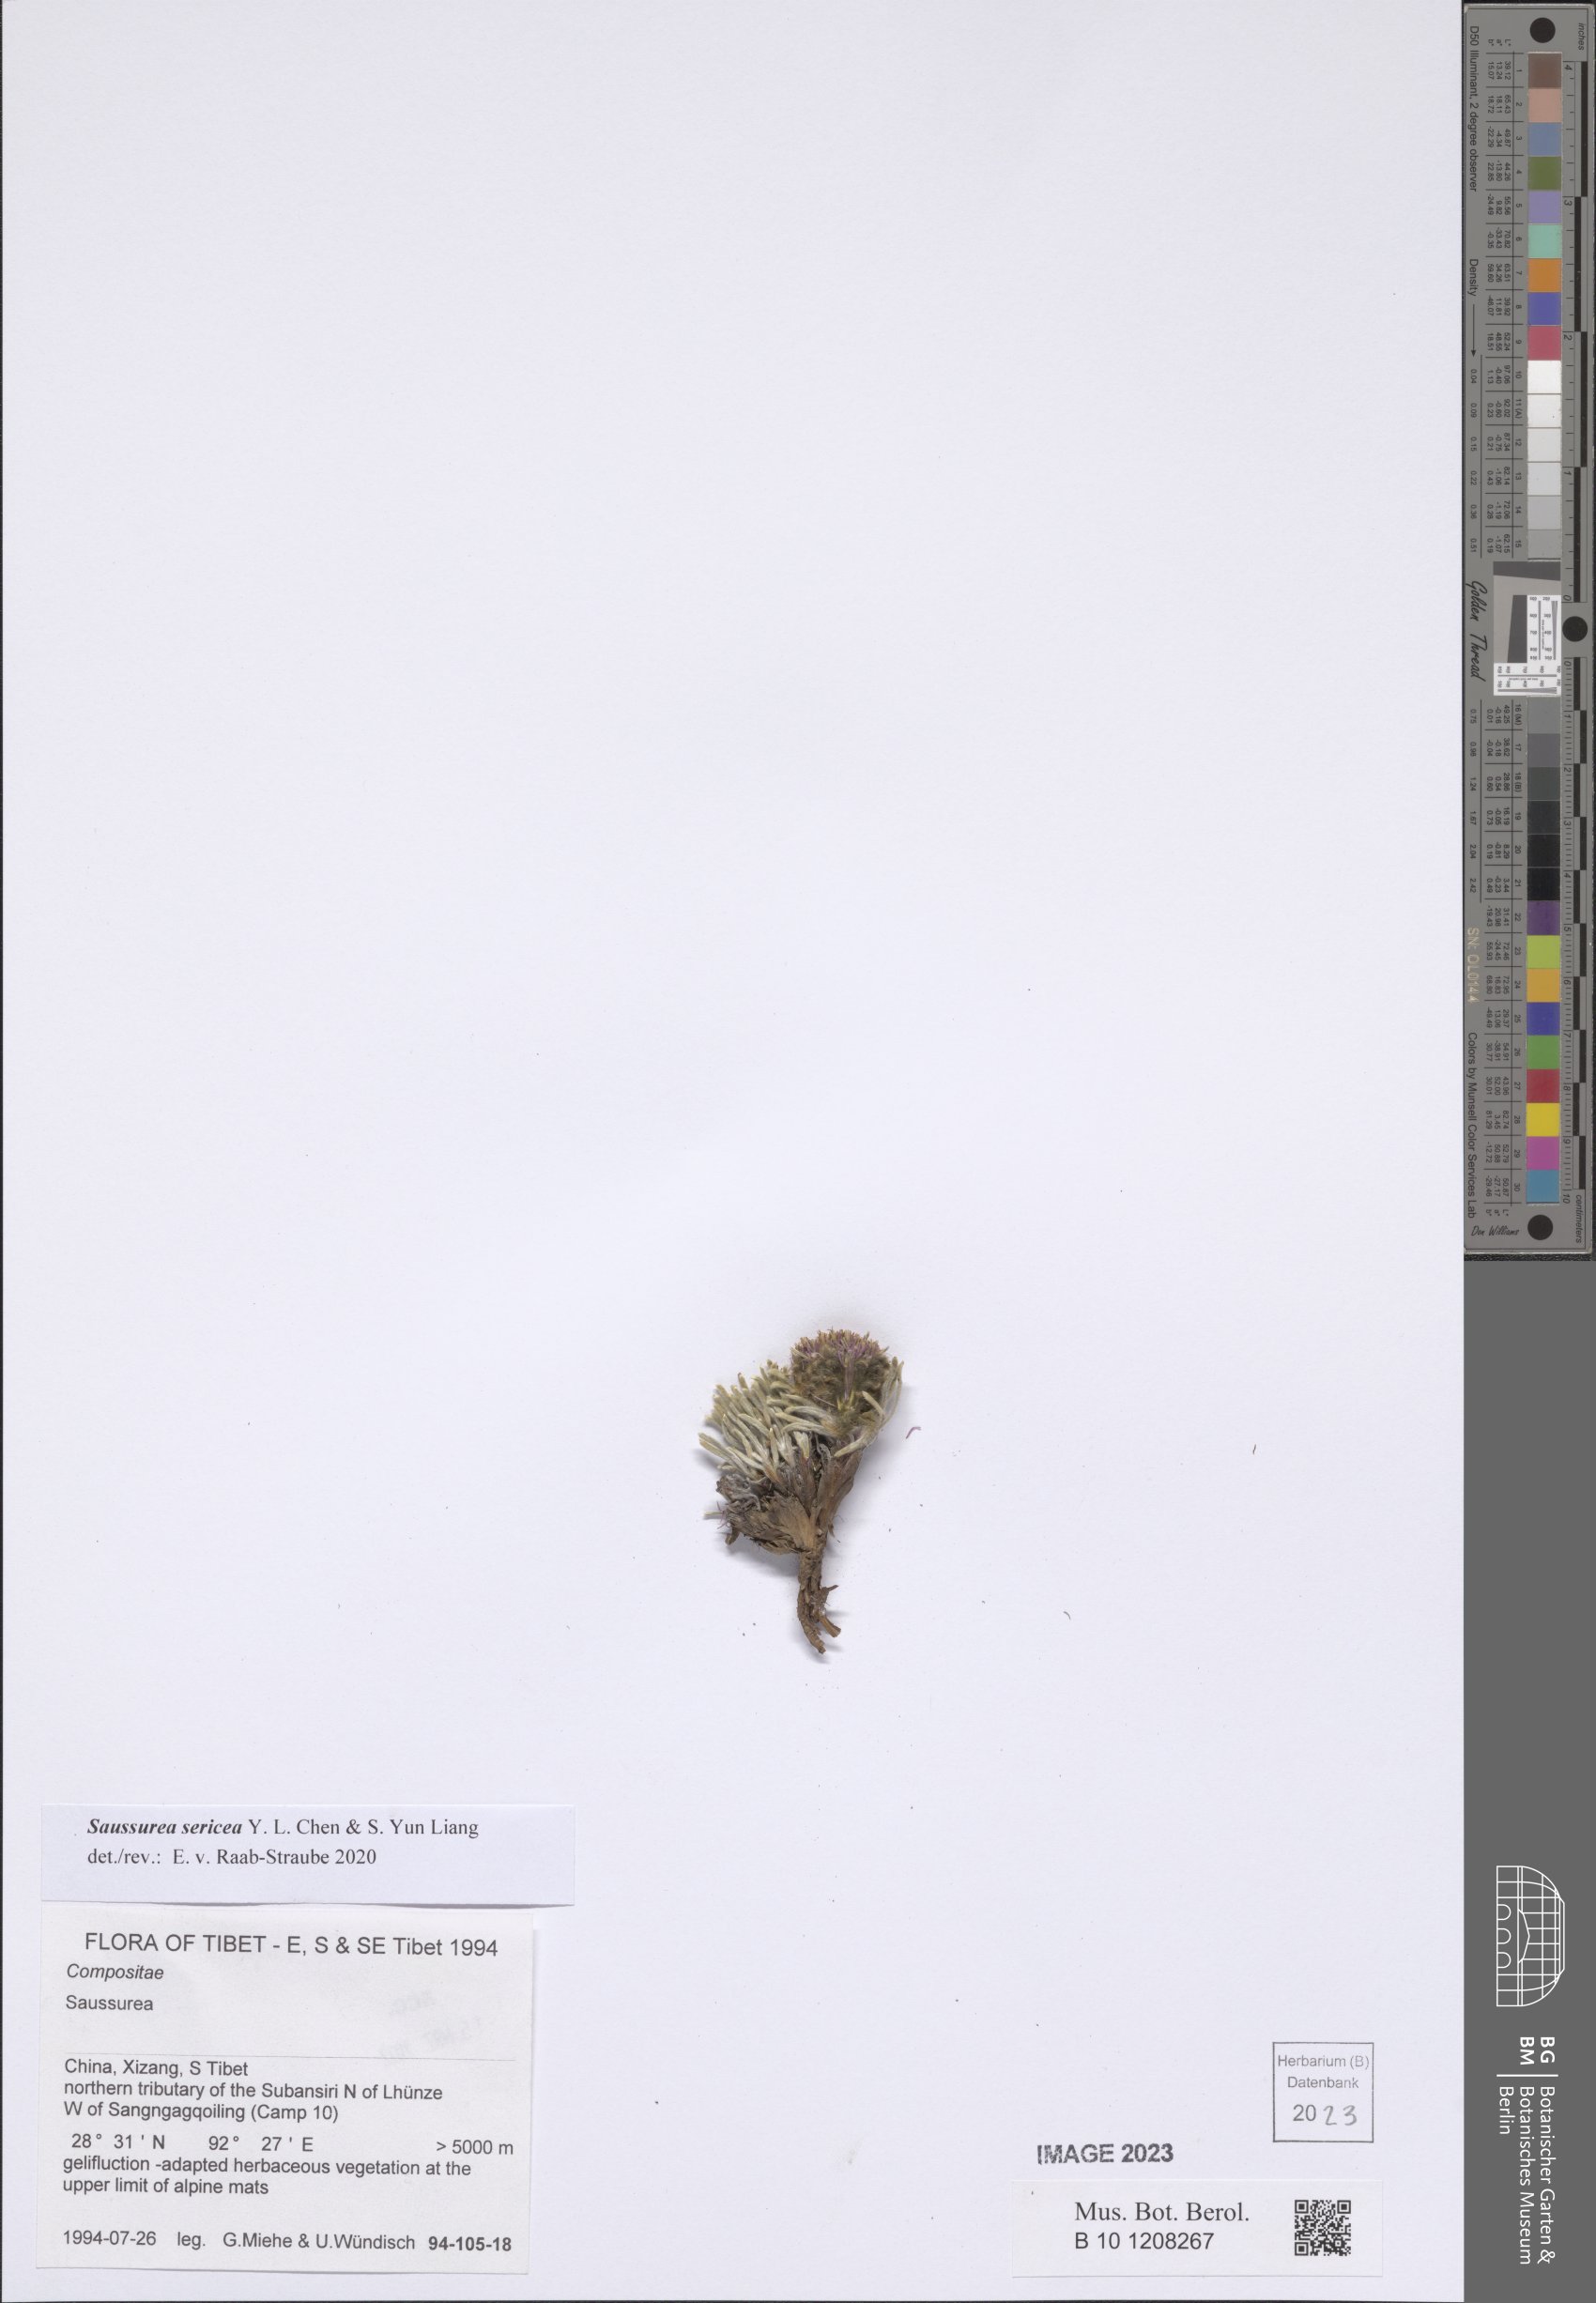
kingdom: Plantae
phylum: Tracheophyta
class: Magnoliopsida
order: Asterales
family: Asteraceae
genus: Saussurea
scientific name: Saussurea sericea
